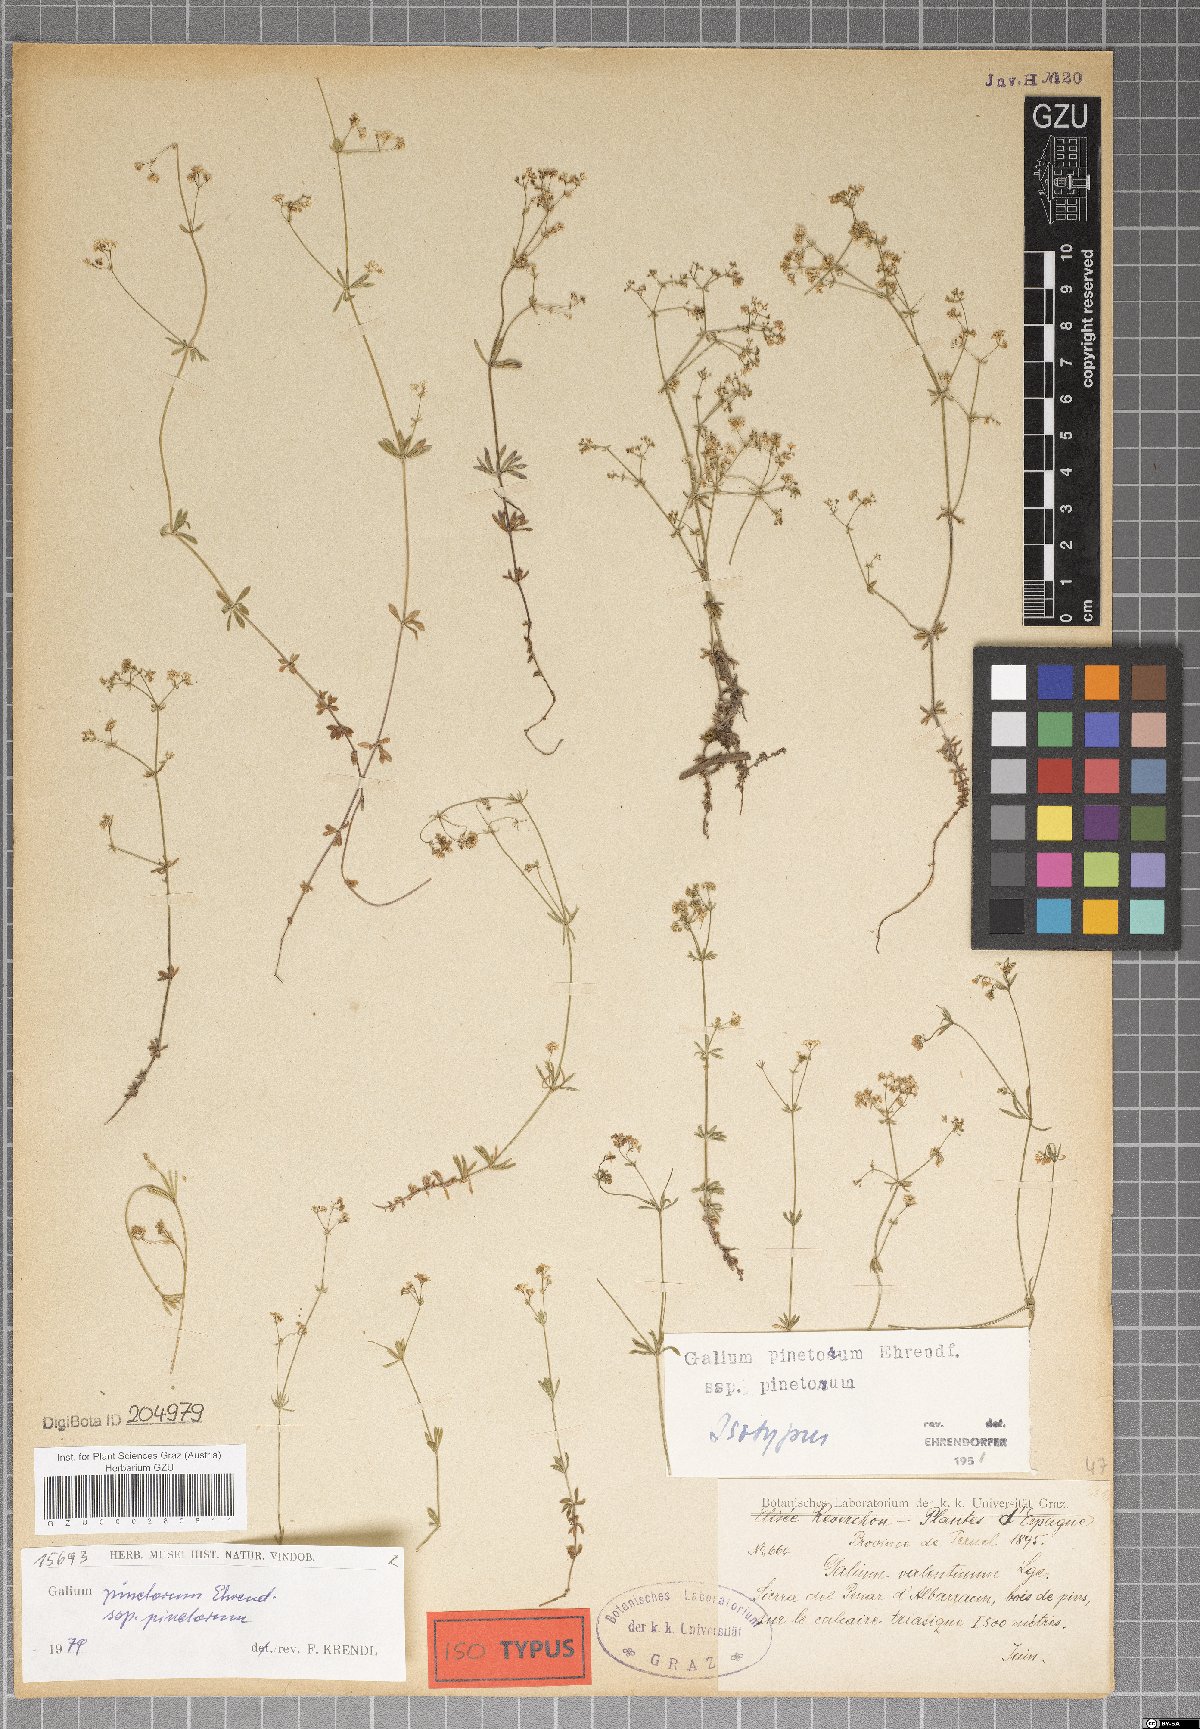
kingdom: Plantae
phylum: Tracheophyta
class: Magnoliopsida
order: Gentianales
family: Rubiaceae
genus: Galium
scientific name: Galium estebanii
